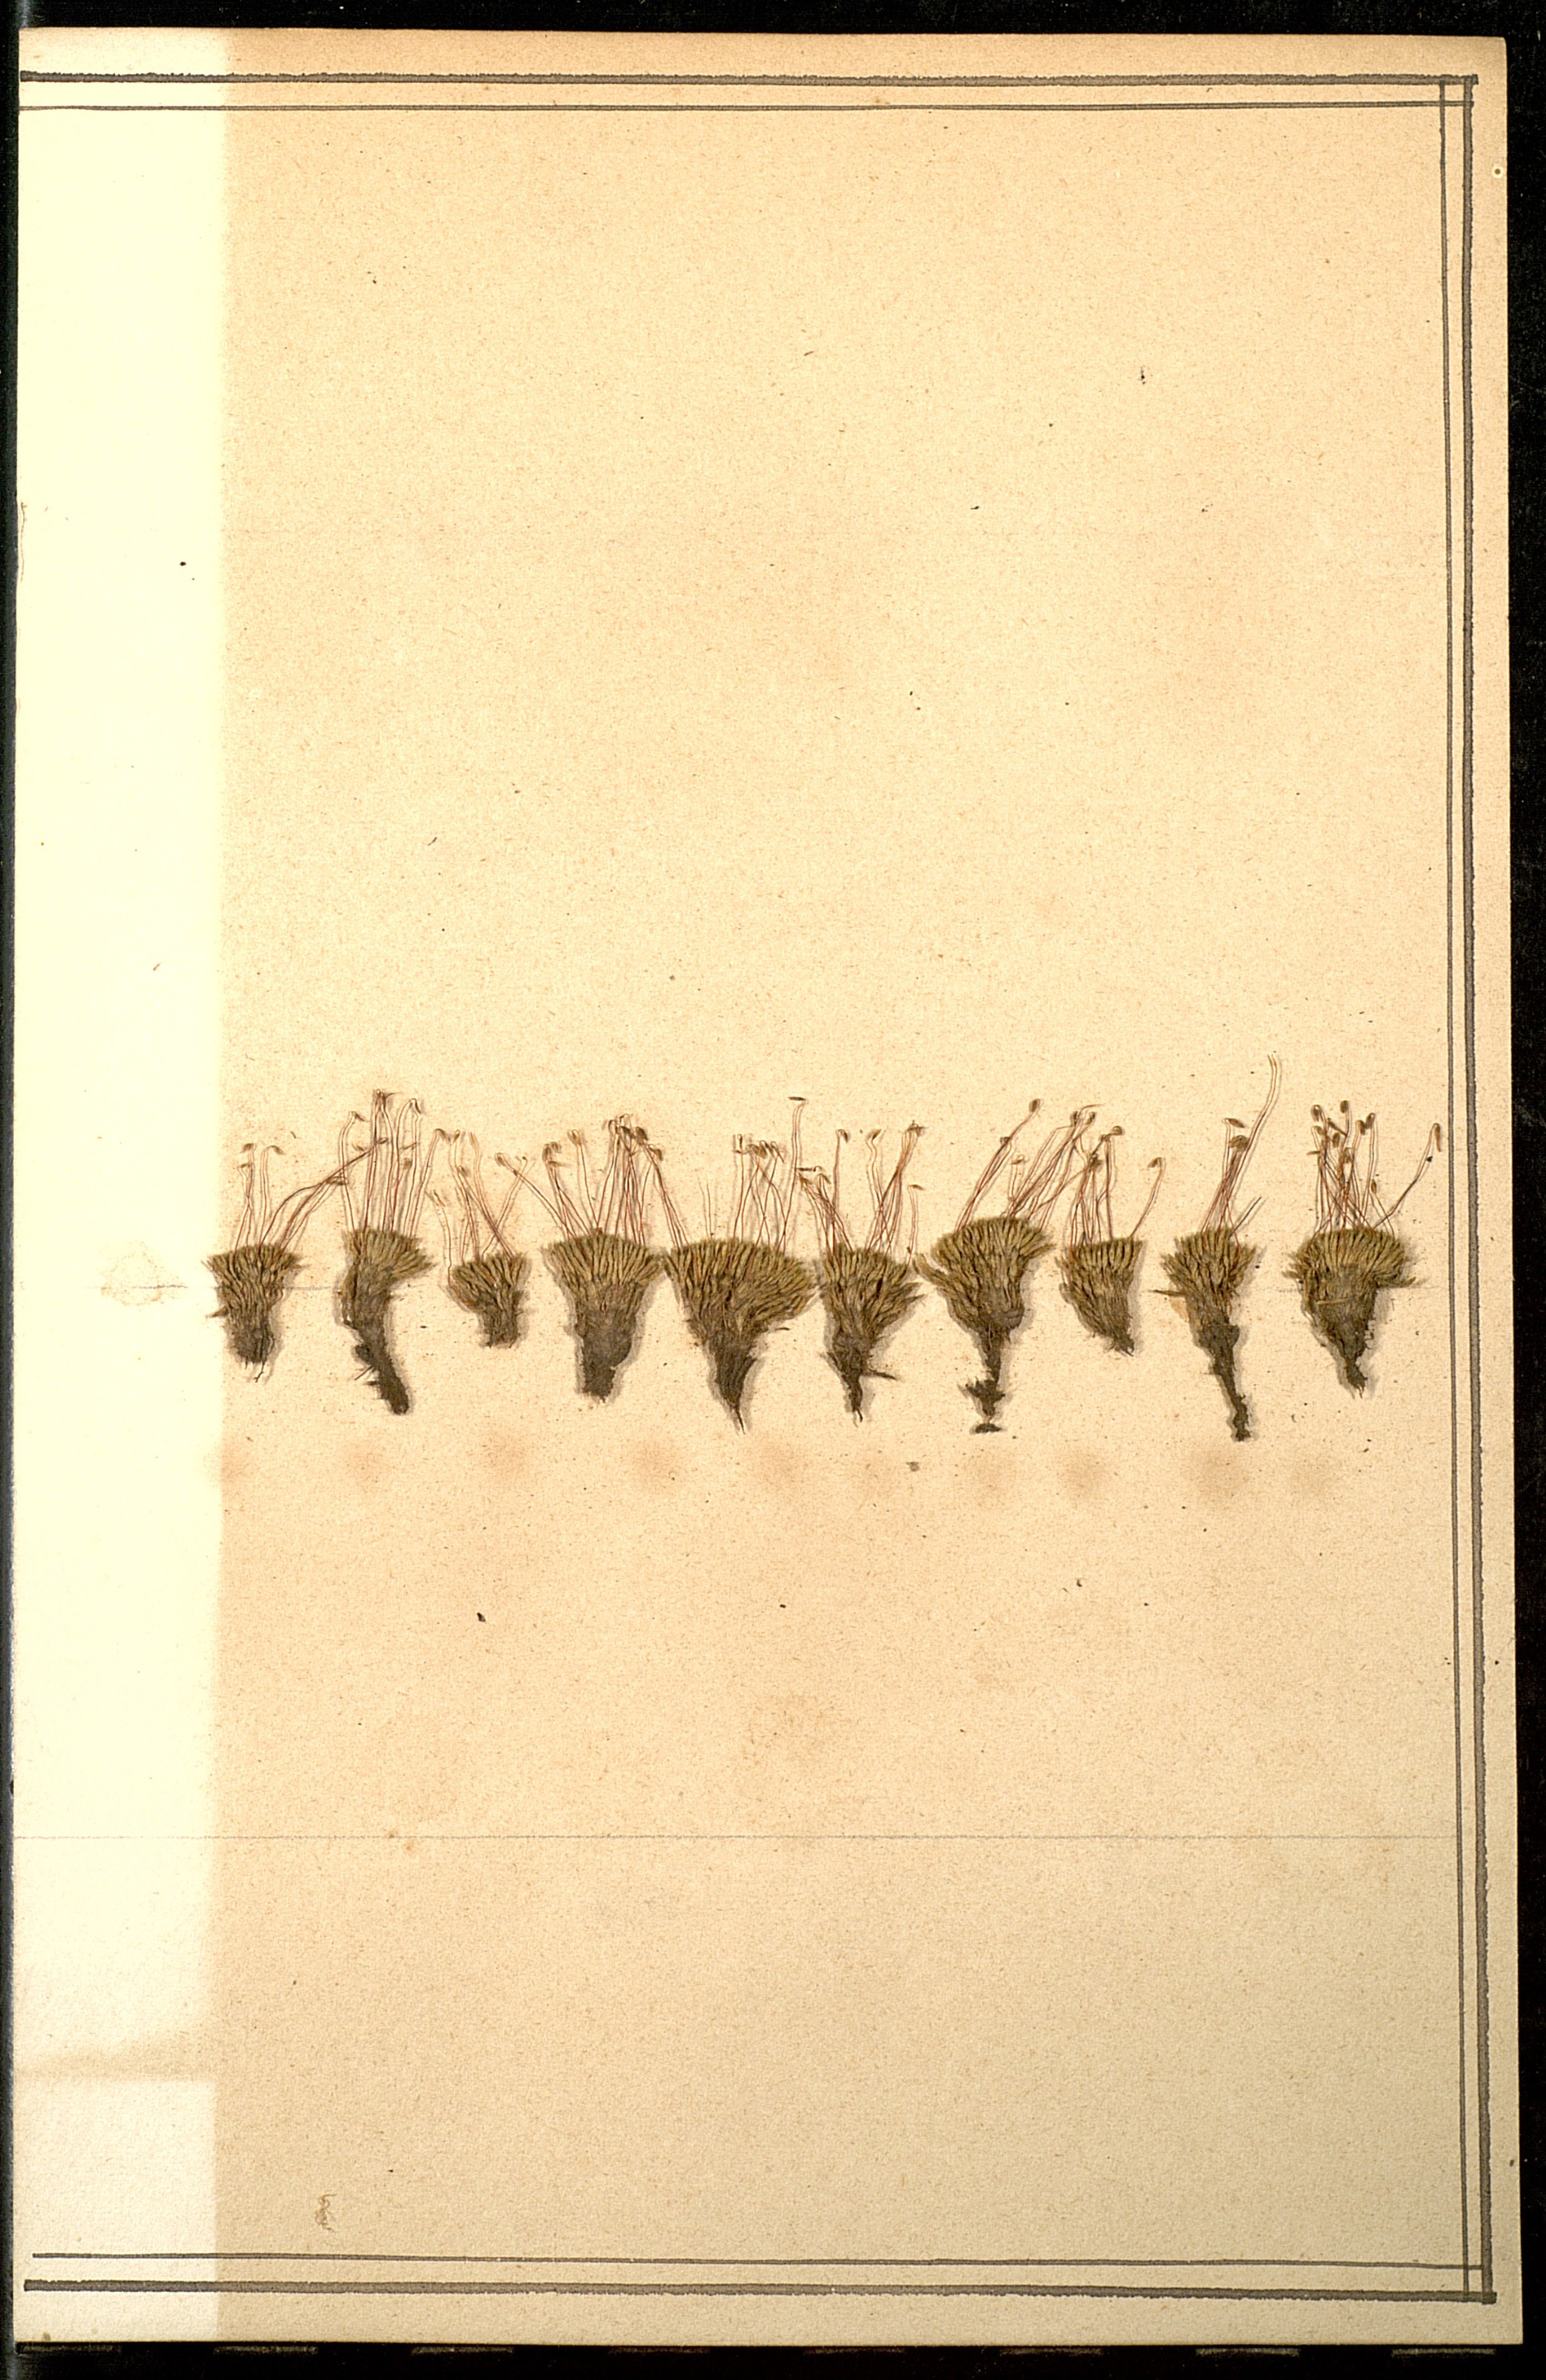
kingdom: Plantae
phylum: Bryophyta
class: Bryopsida
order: Bryales
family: Bryaceae
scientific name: Bryaceae
